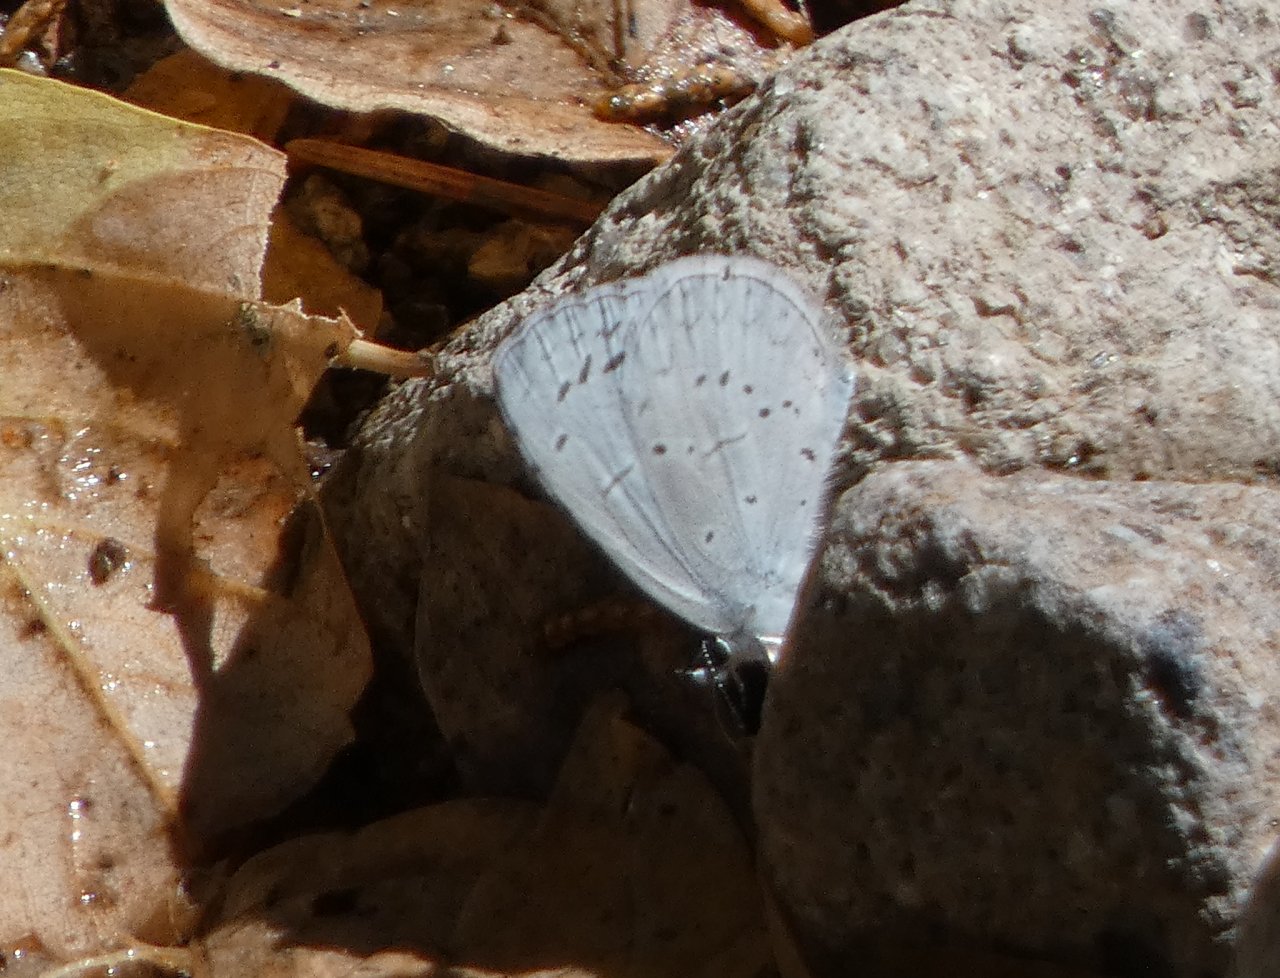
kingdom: Animalia
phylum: Arthropoda
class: Insecta
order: Lepidoptera
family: Lycaenidae
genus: Celastrina
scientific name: Celastrina ladon
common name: Echo Azure
